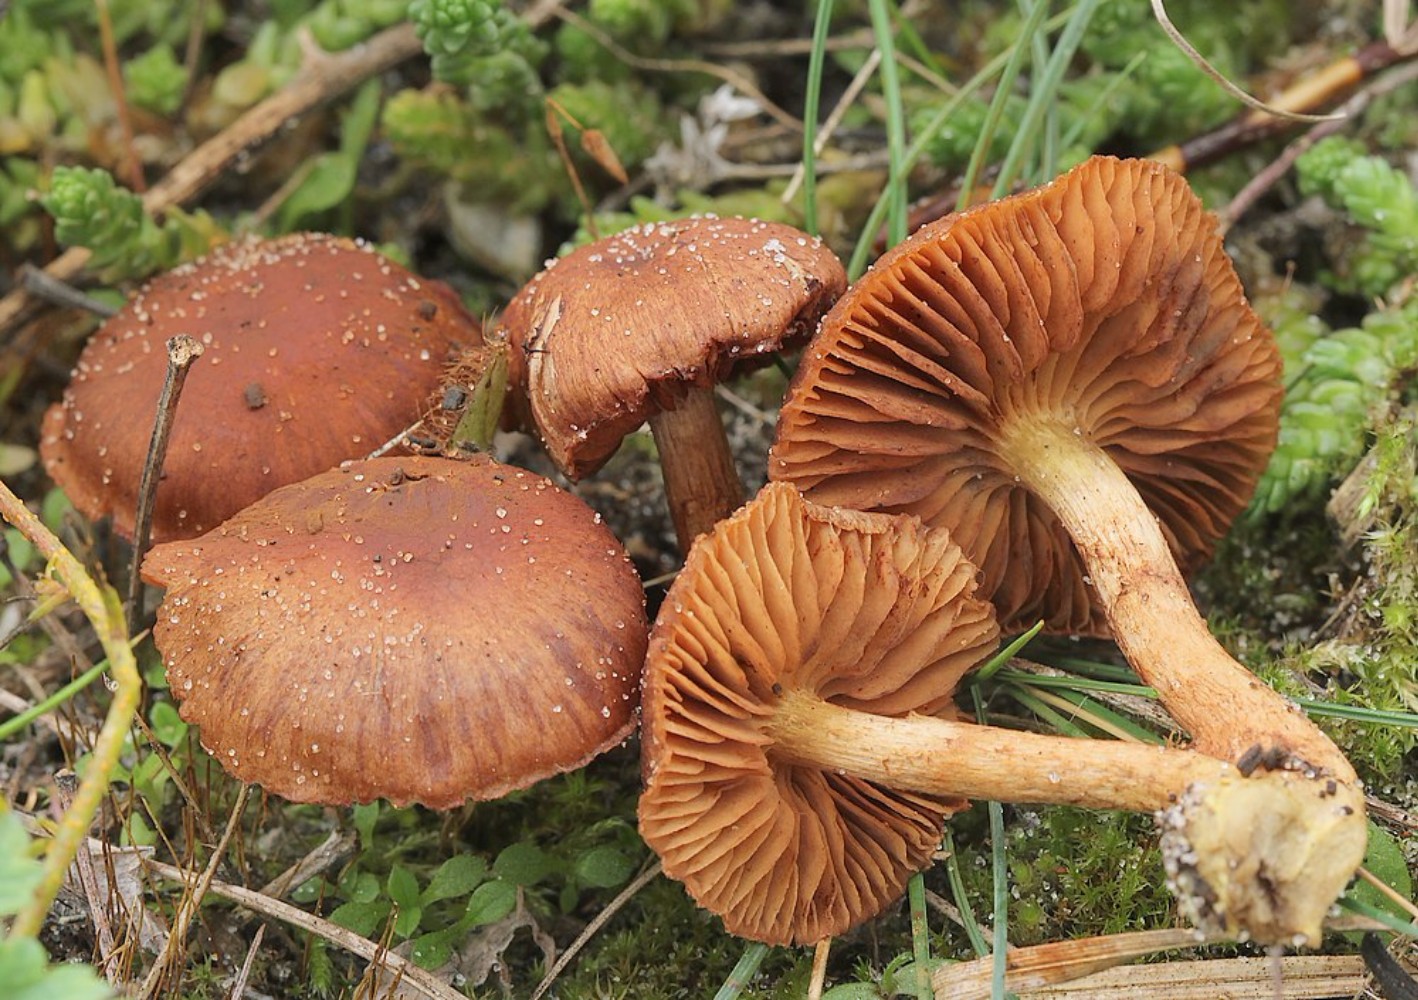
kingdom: Fungi
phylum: Basidiomycota
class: Agaricomycetes
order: Agaricales
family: Cortinariaceae
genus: Cortinarius
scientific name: Cortinarius pratensis
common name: hede-slørhat
